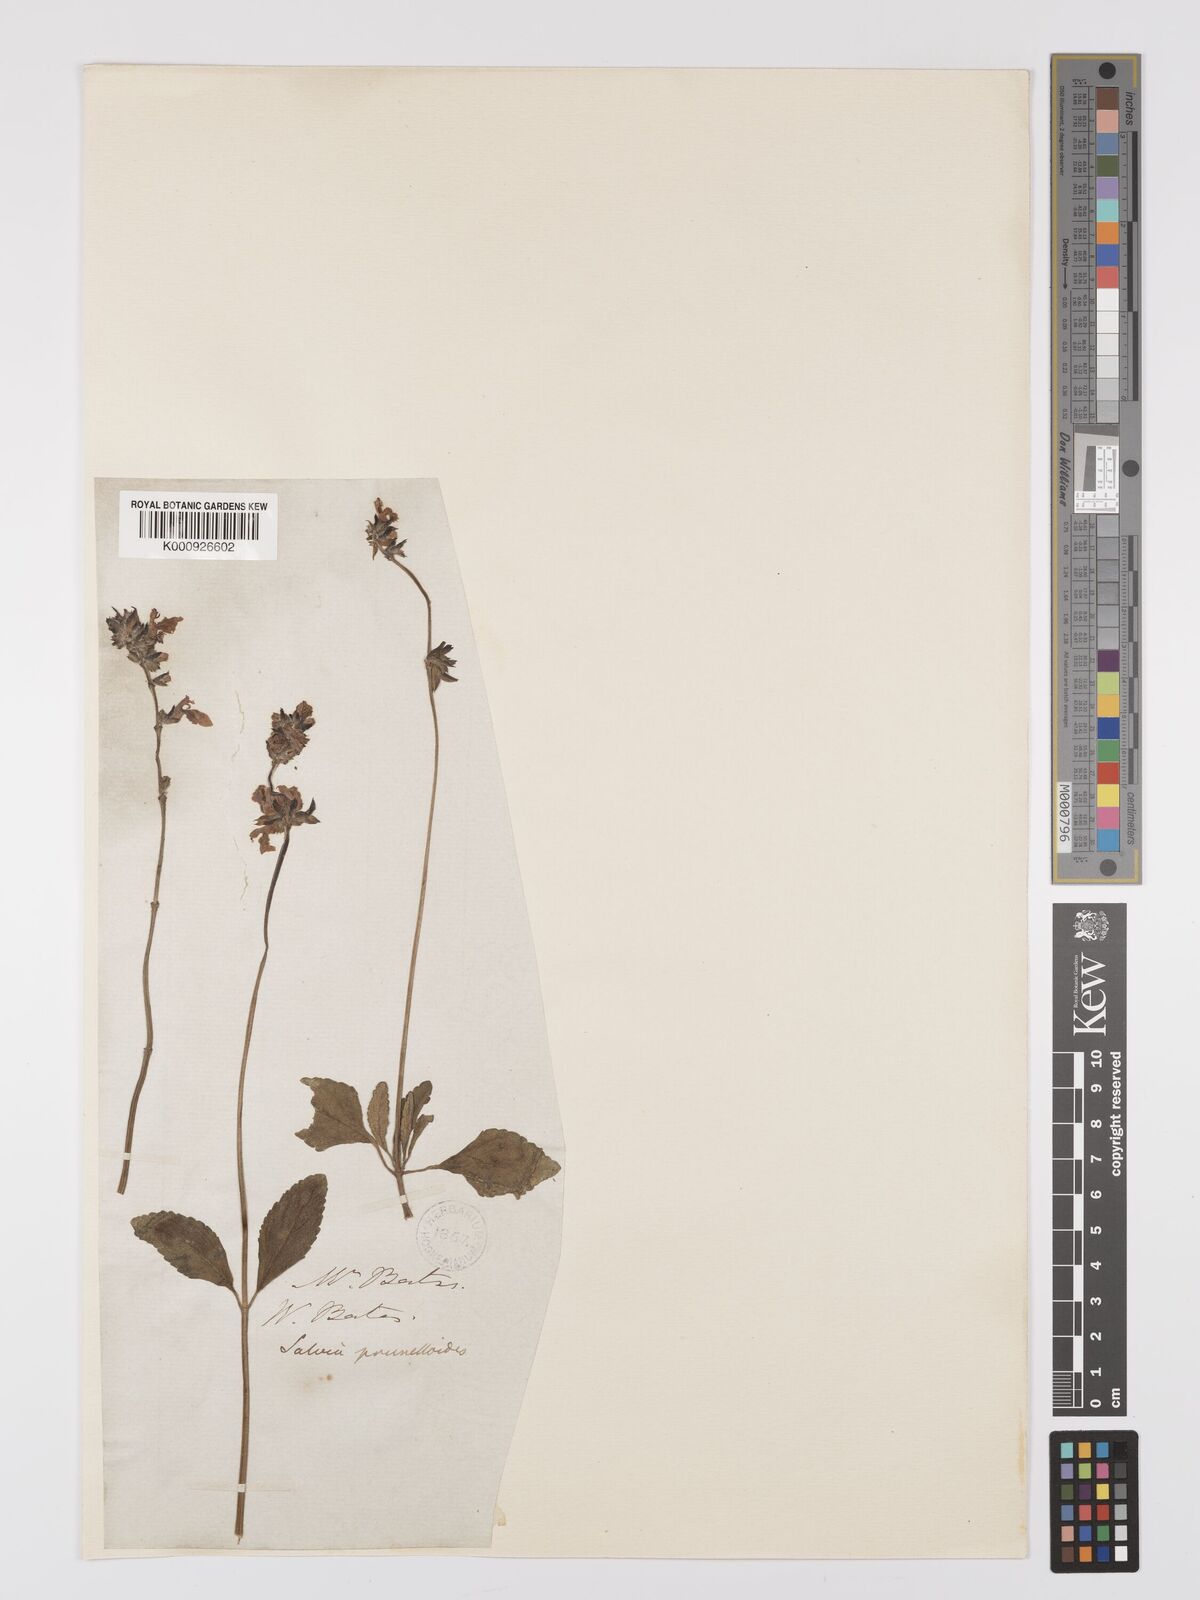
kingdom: Plantae
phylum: Tracheophyta
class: Magnoliopsida
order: Lamiales
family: Lamiaceae
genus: Salvia
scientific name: Salvia nana
